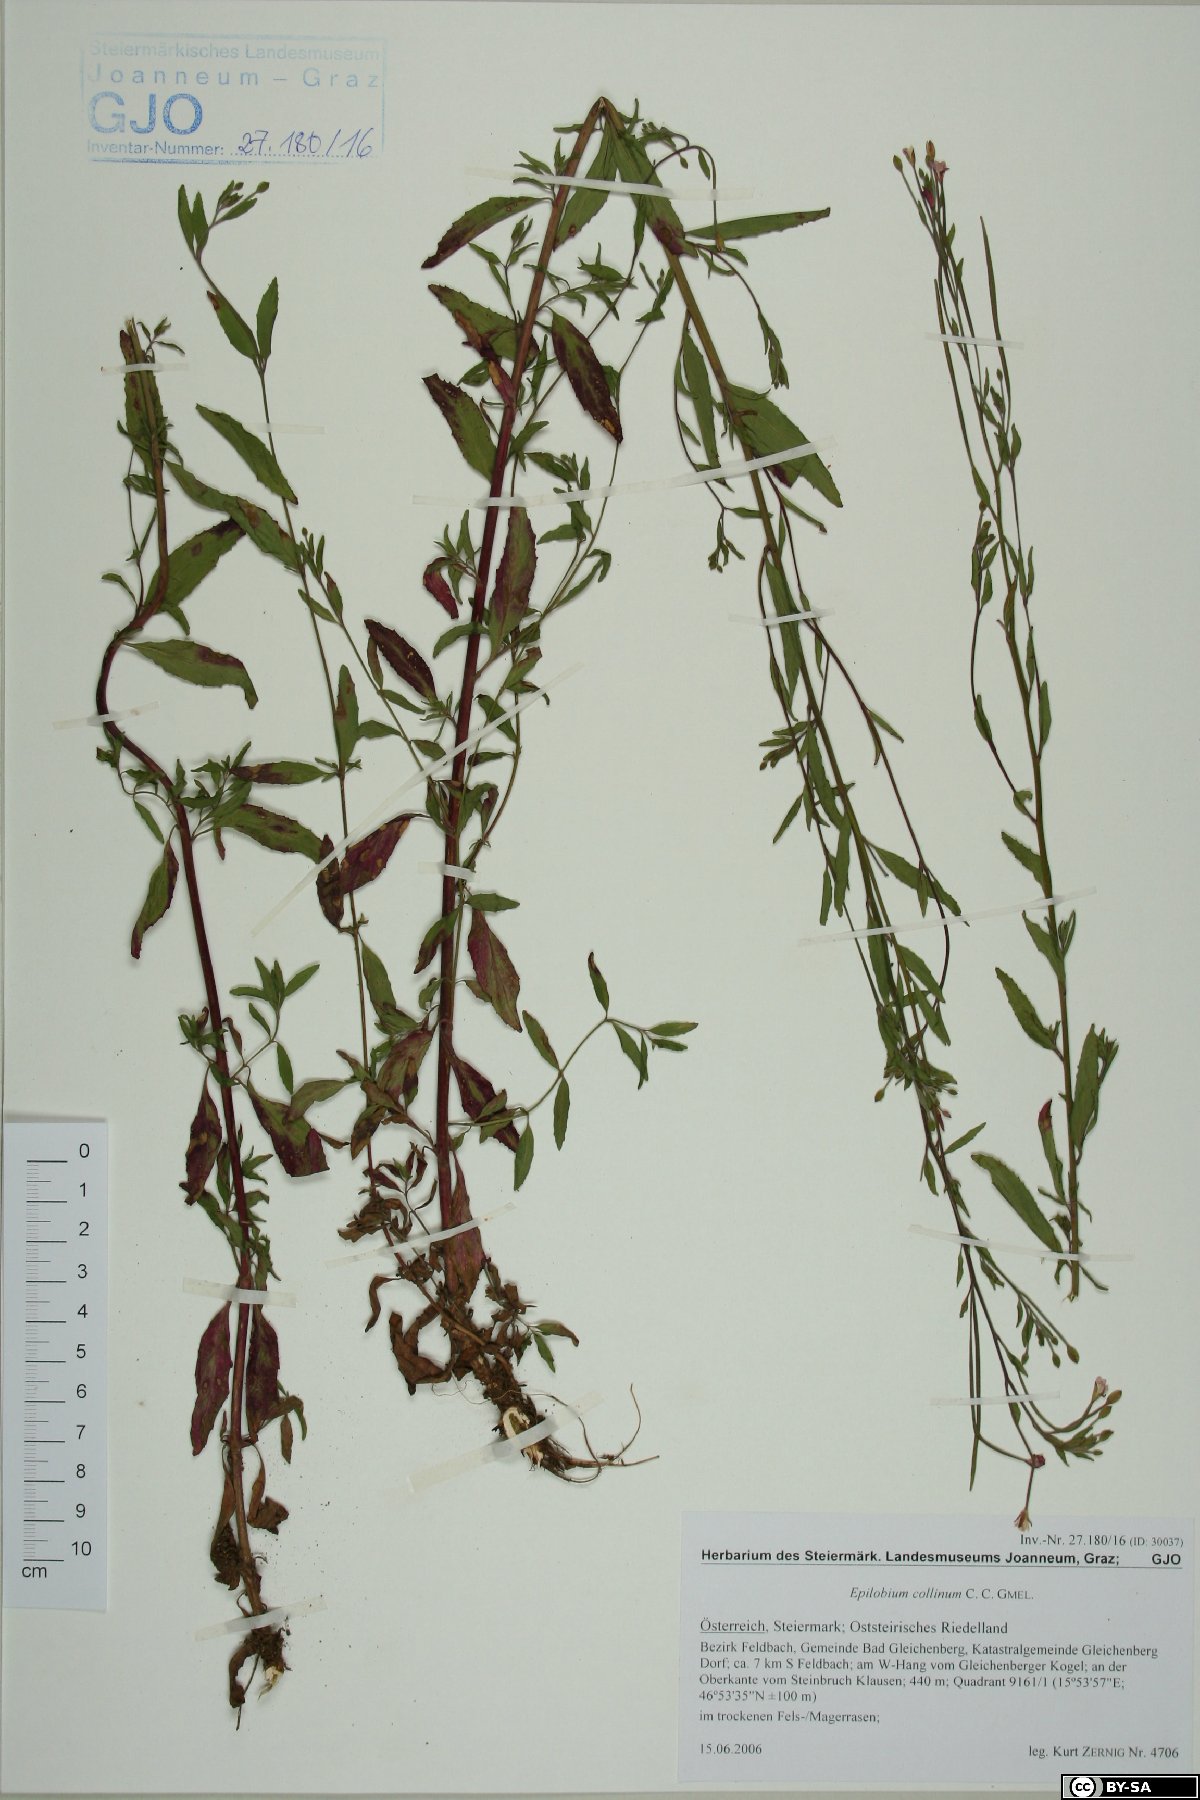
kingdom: Plantae
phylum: Tracheophyta
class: Magnoliopsida
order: Myrtales
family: Onagraceae
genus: Epilobium
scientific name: Epilobium collinum
